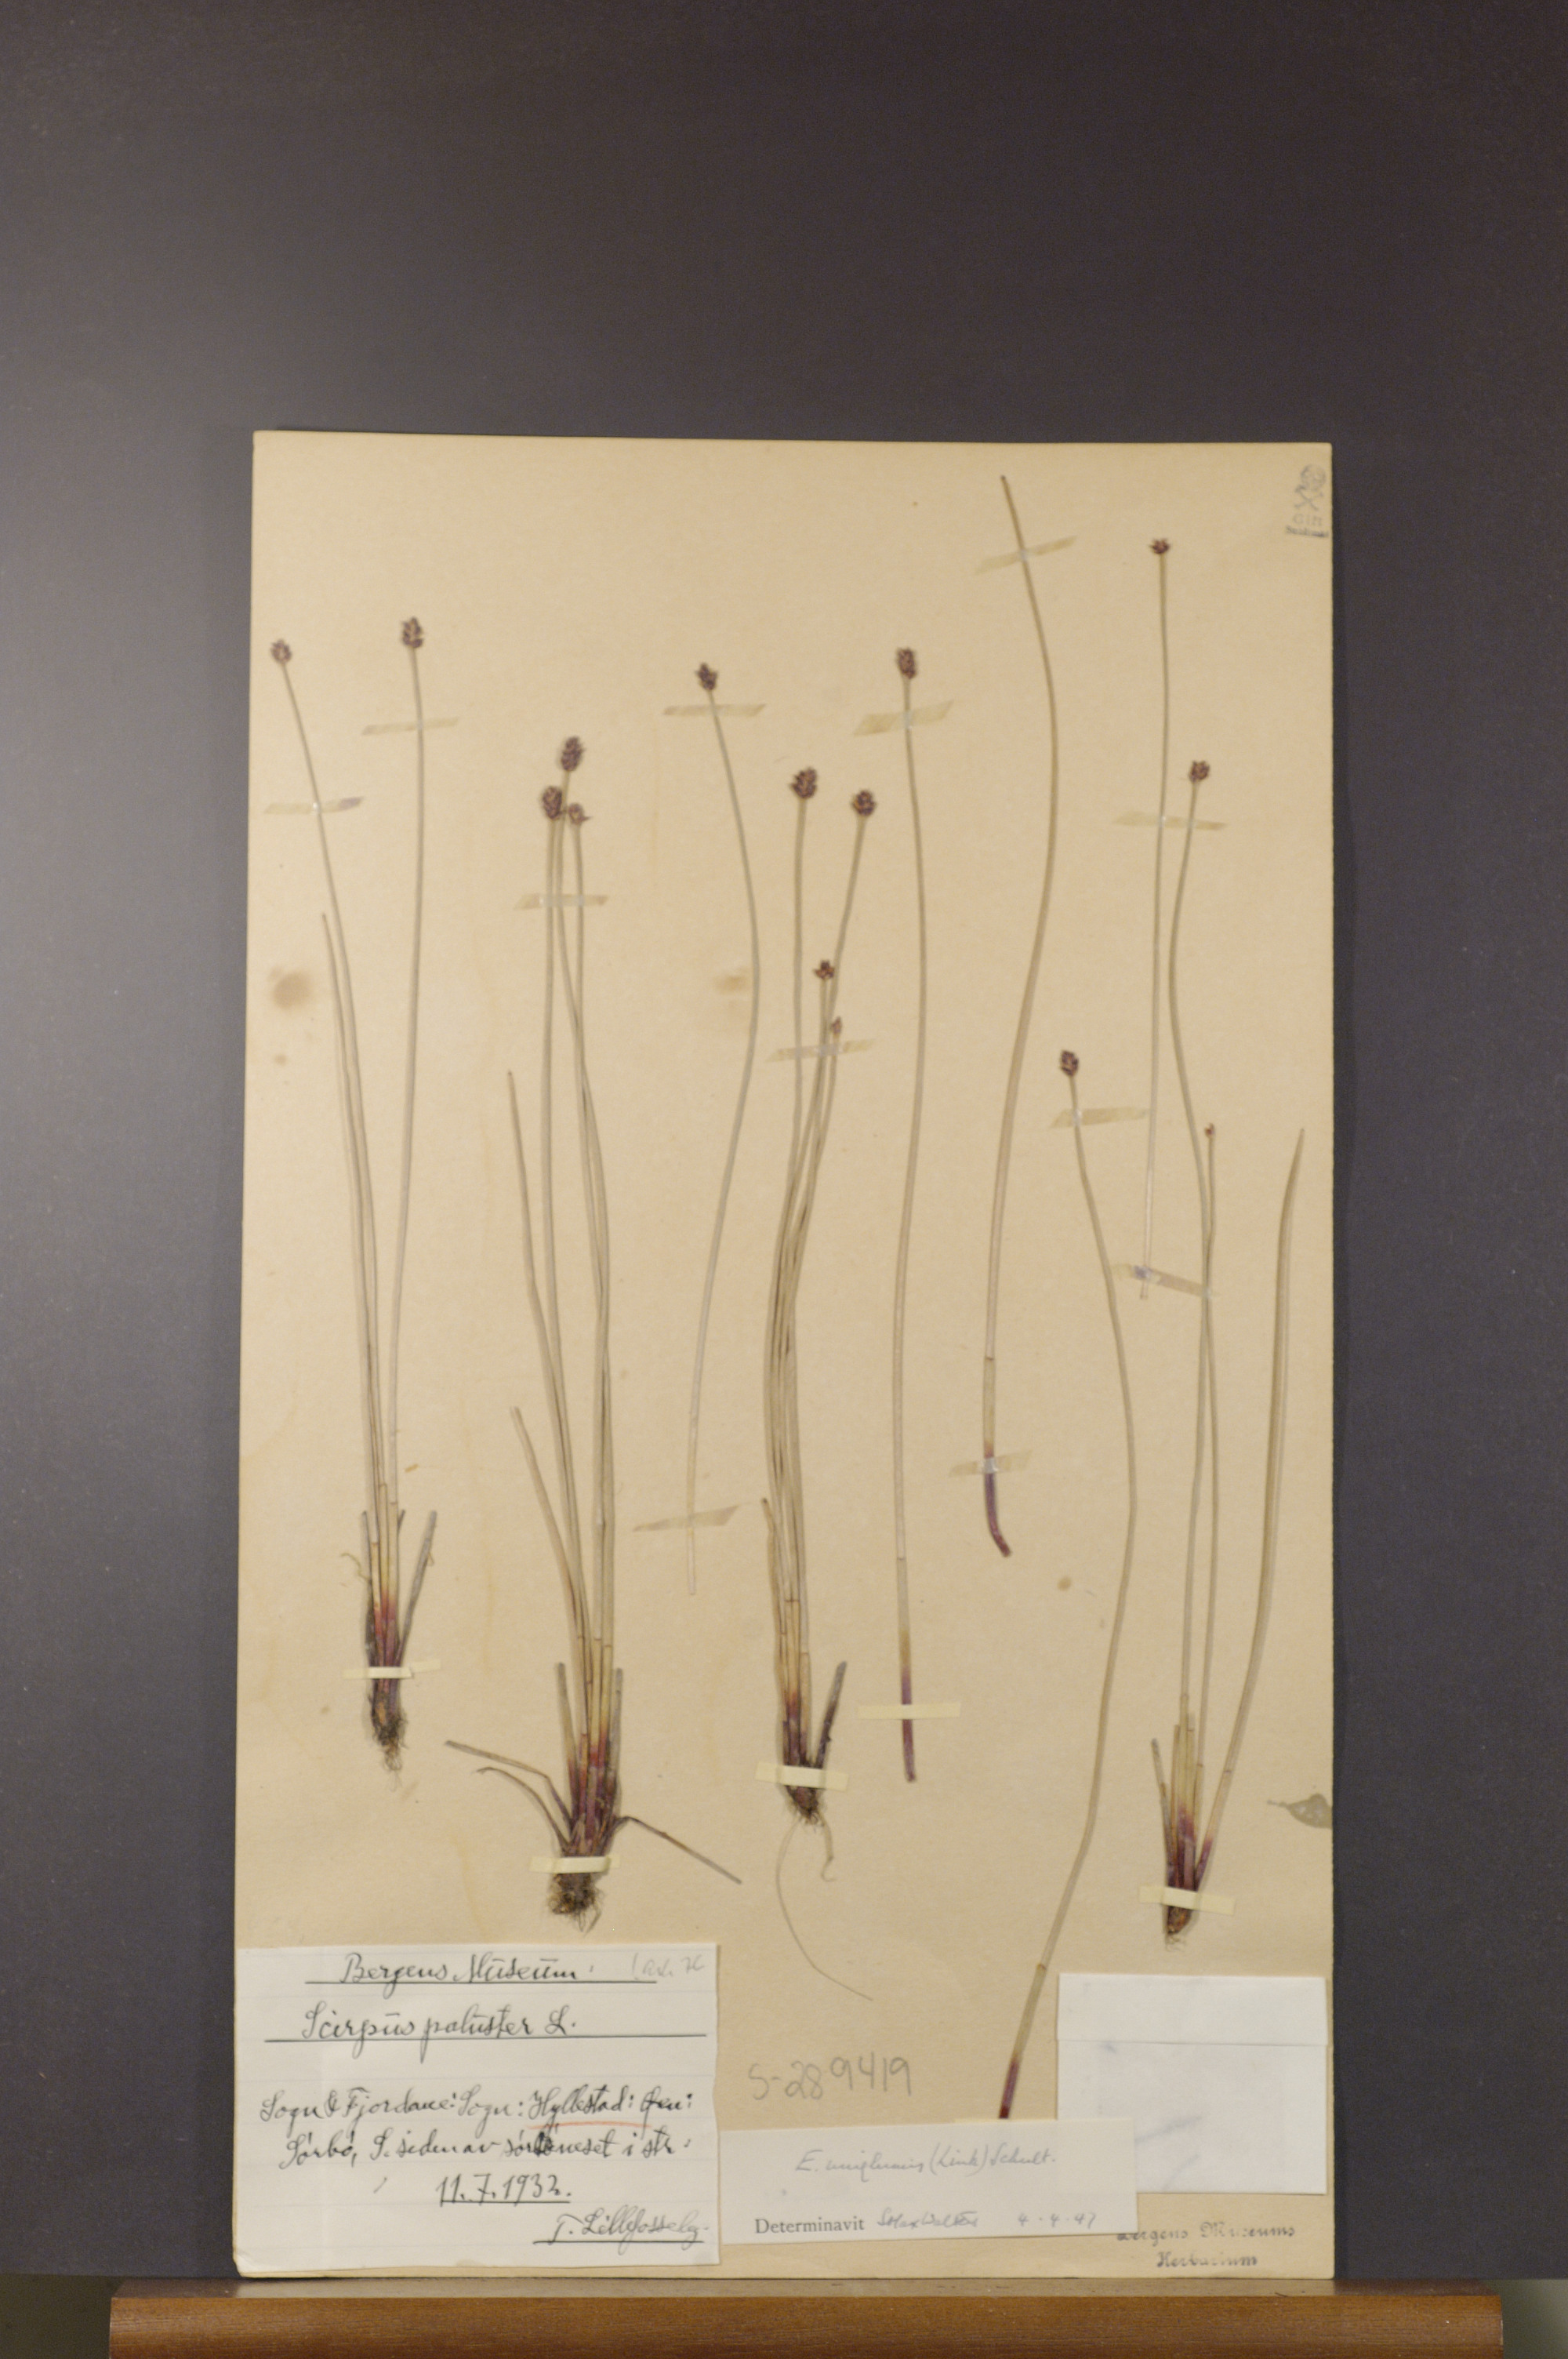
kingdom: Plantae
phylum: Tracheophyta
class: Liliopsida
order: Poales
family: Cyperaceae
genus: Eleocharis
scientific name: Eleocharis uniglumis
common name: Slender spike-rush
